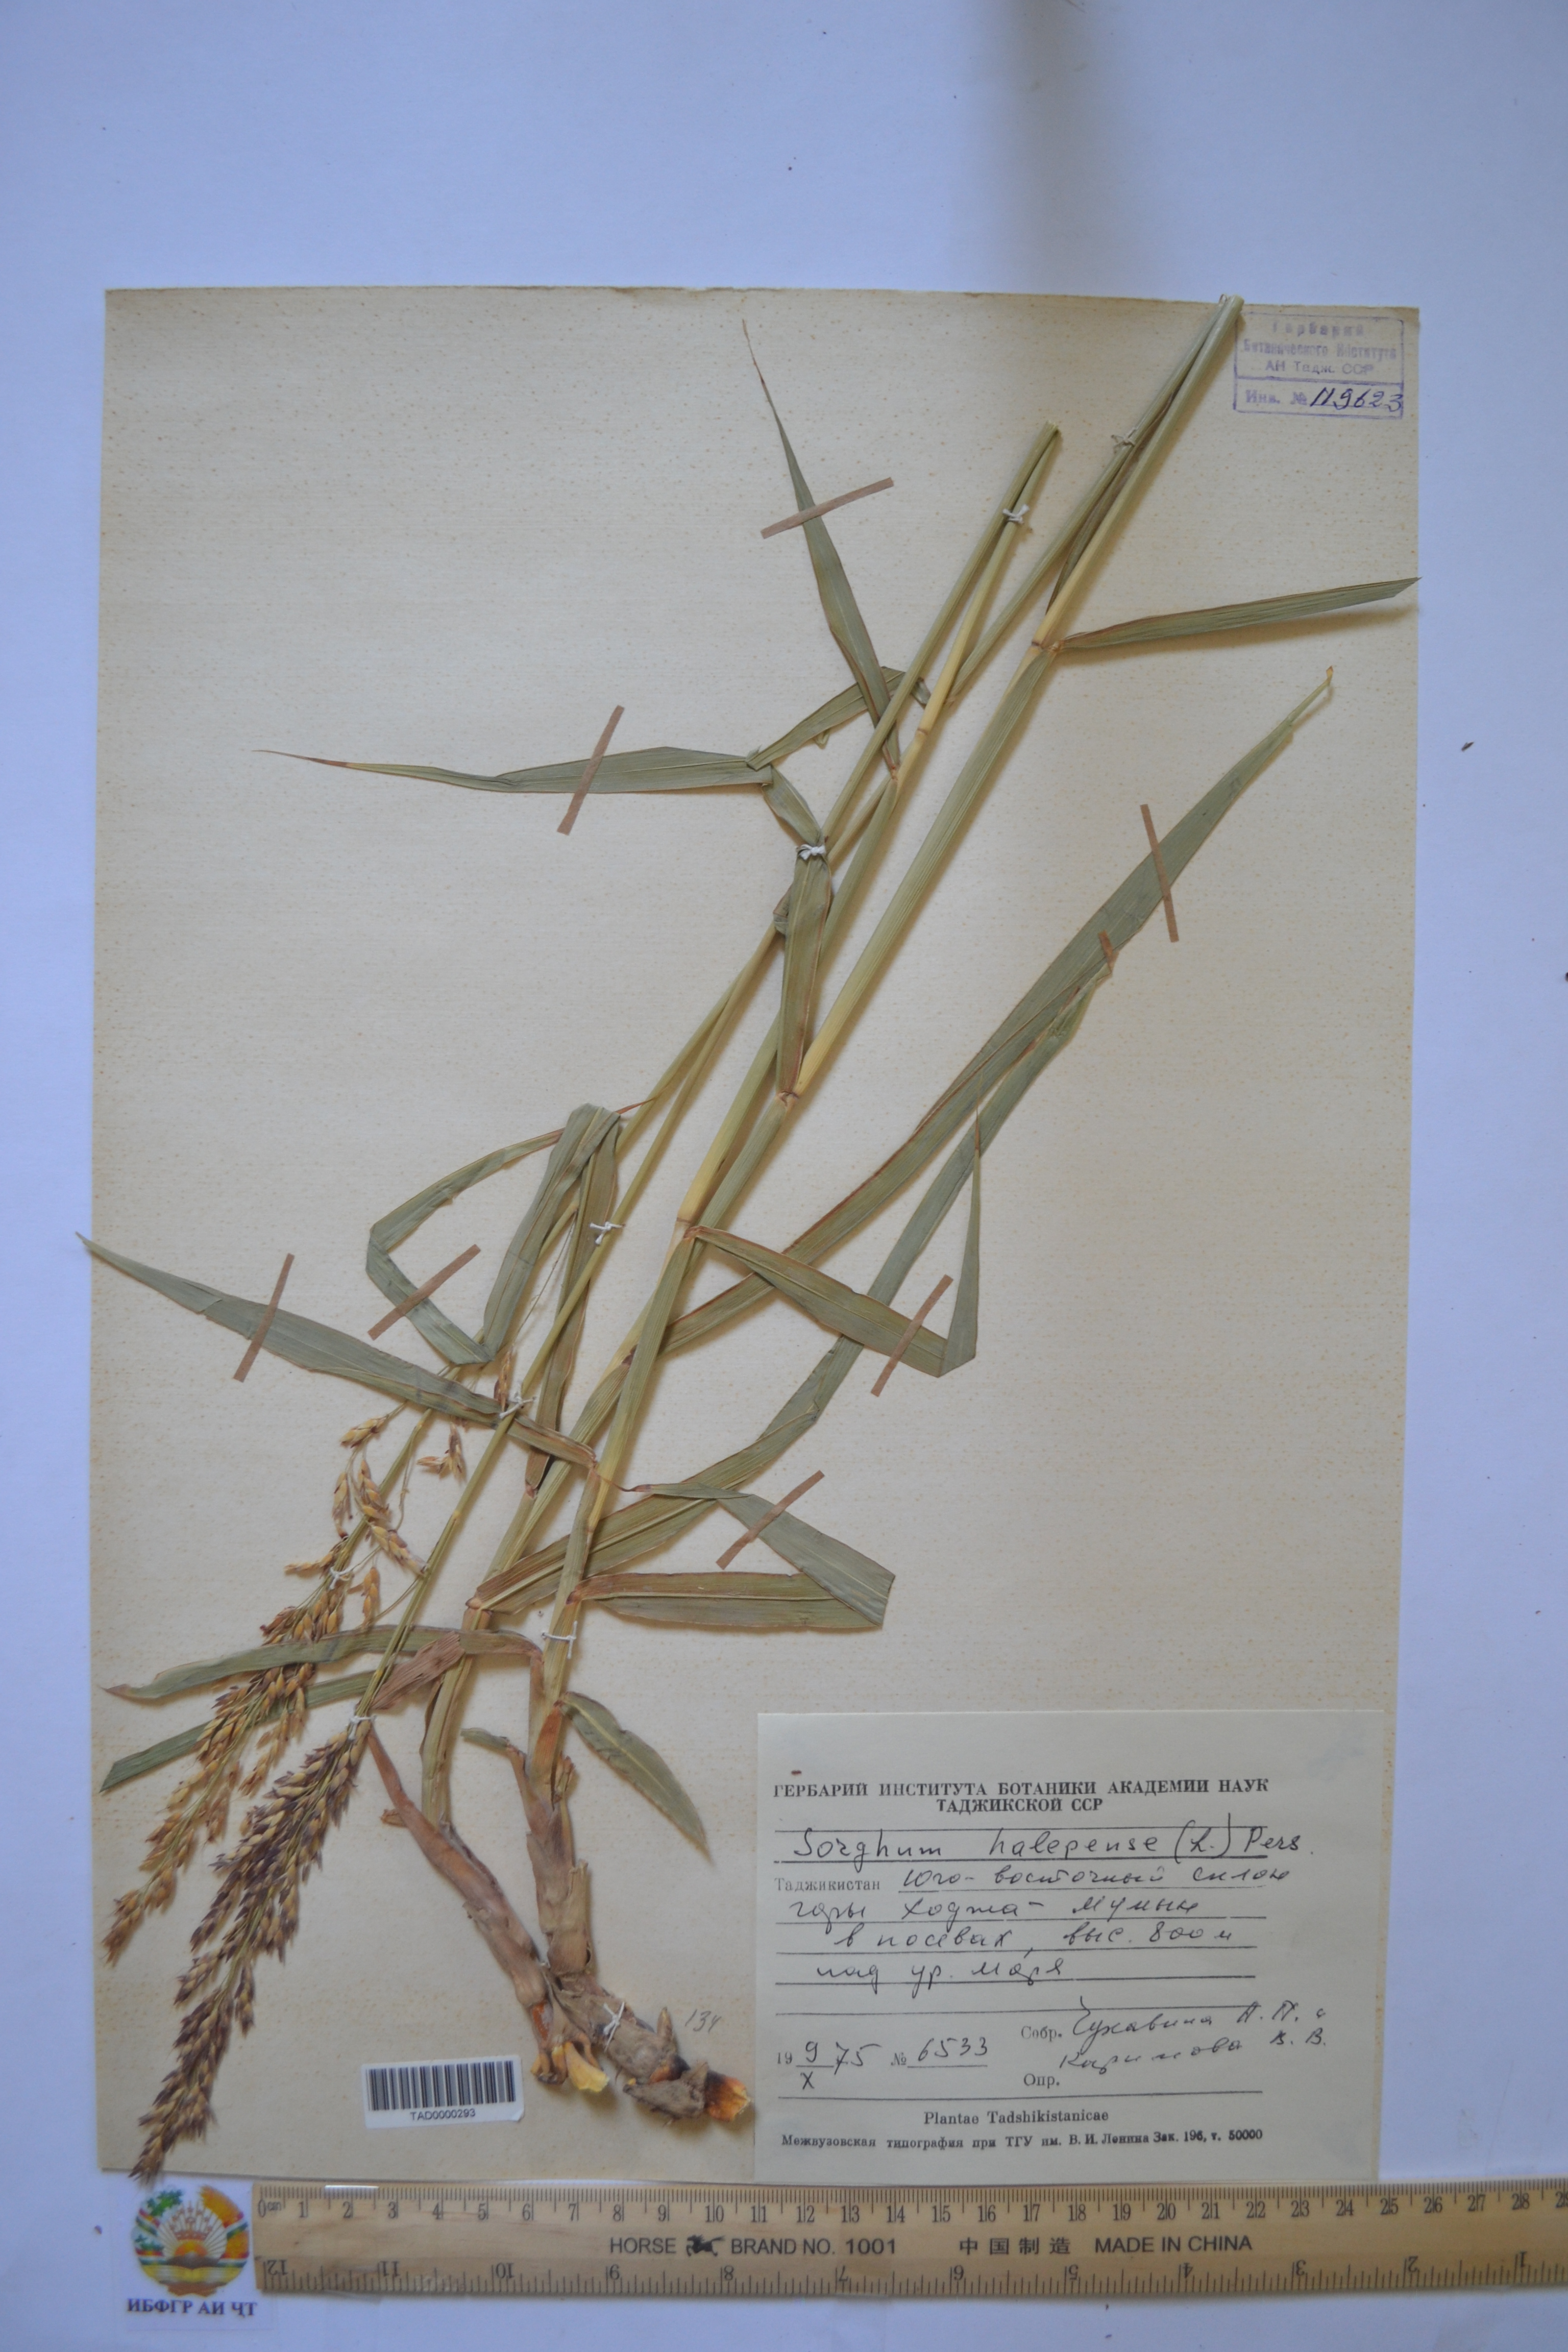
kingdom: Plantae
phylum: Tracheophyta
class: Liliopsida
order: Poales
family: Poaceae
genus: Sorghum
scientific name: Sorghum halepense
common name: Johnson-grass
